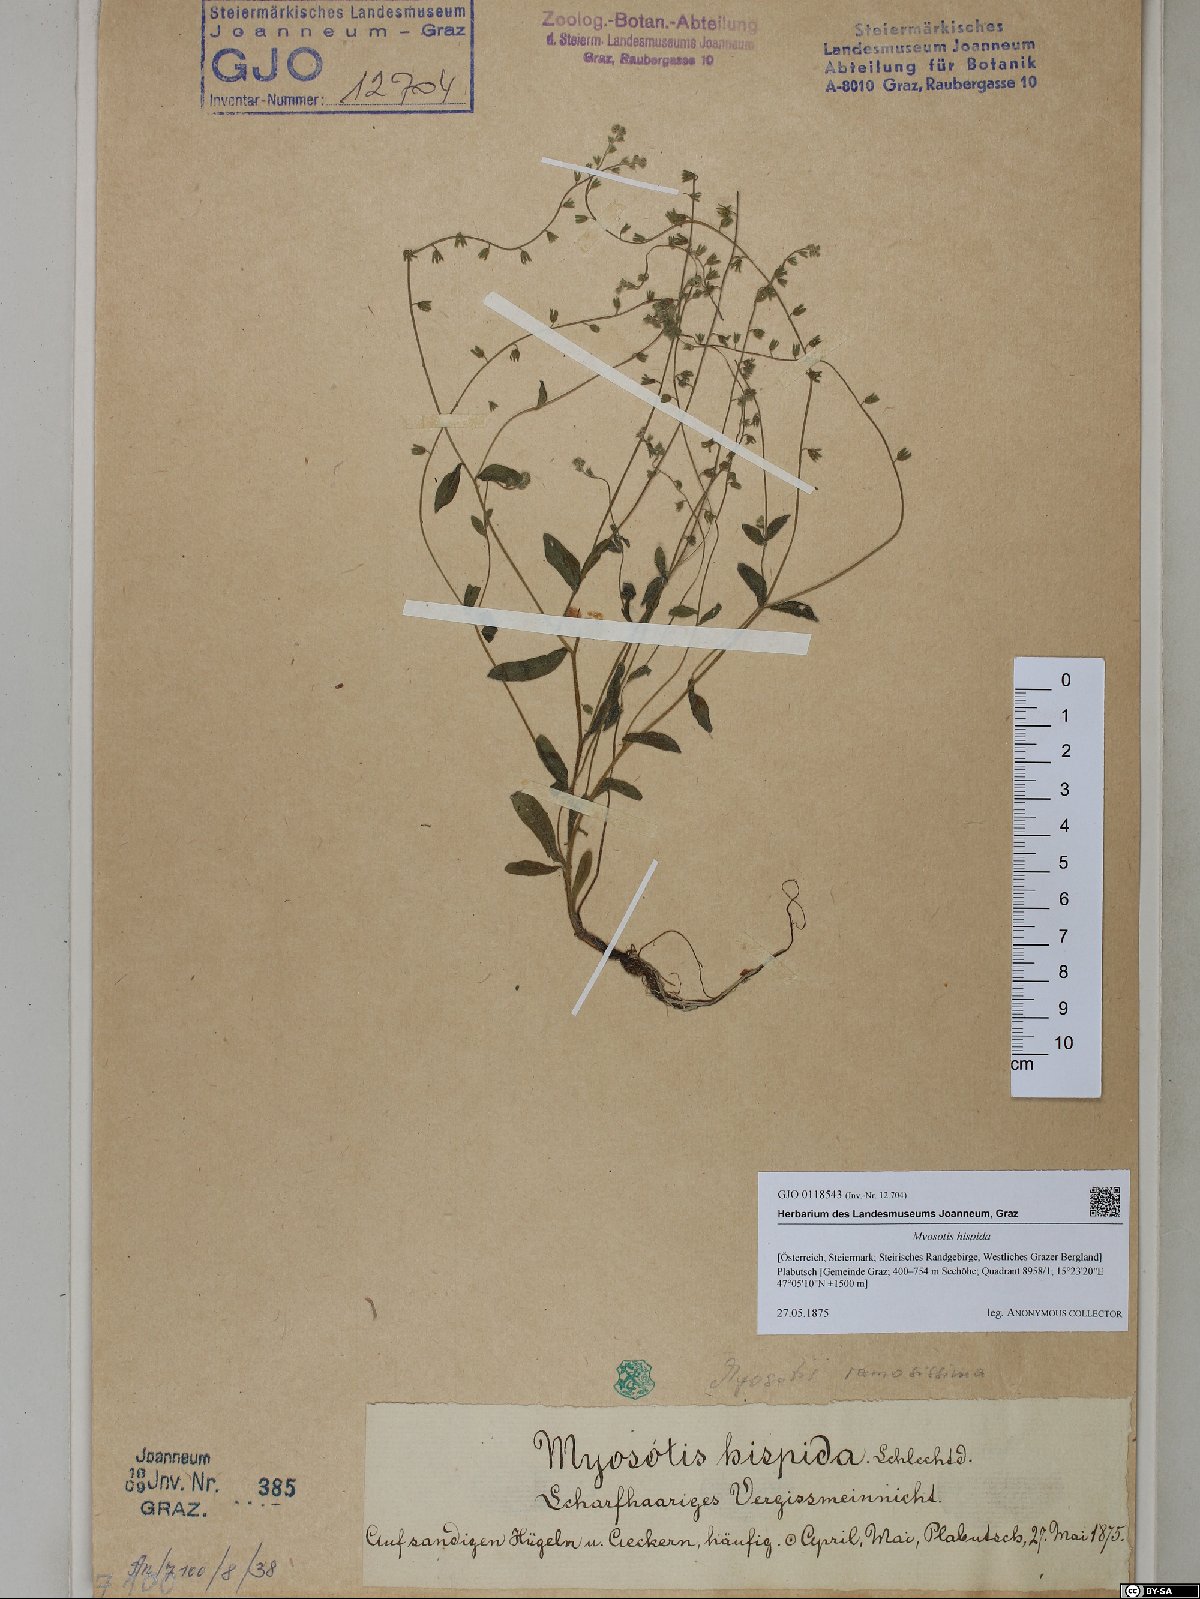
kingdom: Plantae
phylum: Tracheophyta
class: Magnoliopsida
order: Boraginales
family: Boraginaceae
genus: Myosotis
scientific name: Myosotis ramosissima
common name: Early forget-me-not
